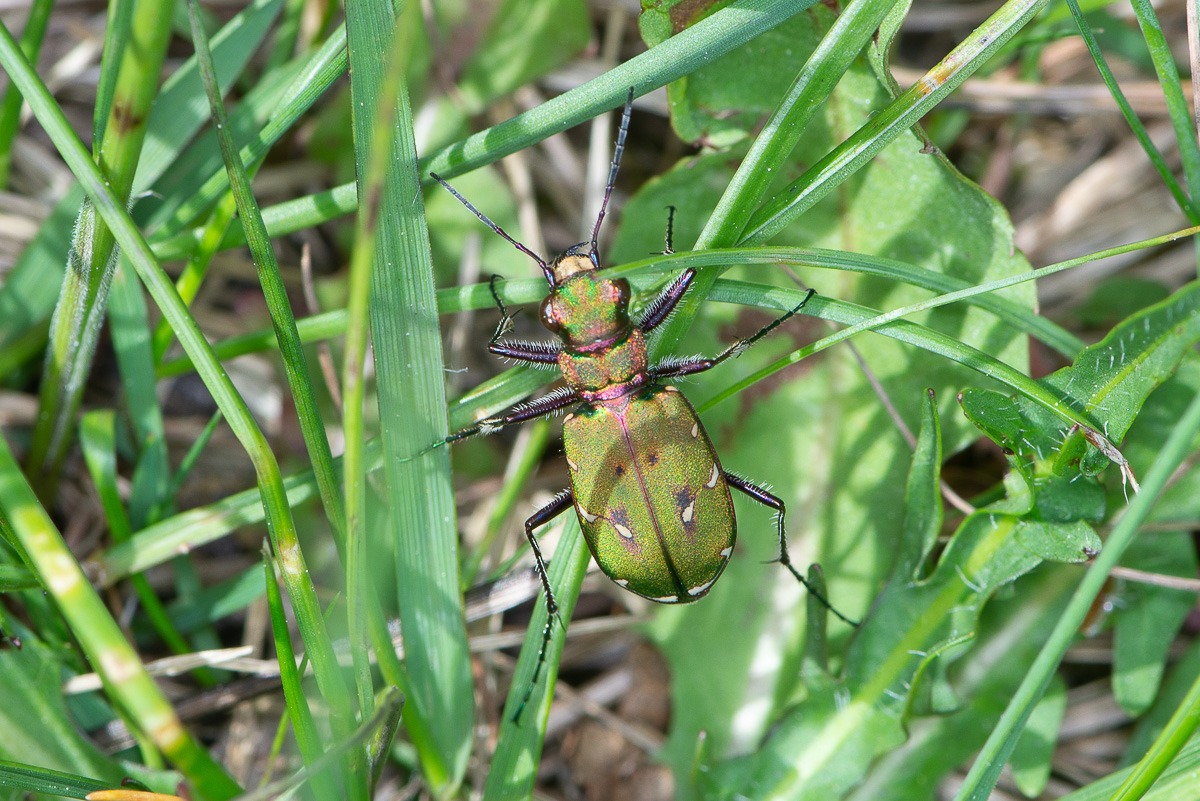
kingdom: Animalia
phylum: Arthropoda
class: Insecta
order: Coleoptera
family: Carabidae
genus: Cicindela
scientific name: Cicindela campestris
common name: Grøn sandspringer
